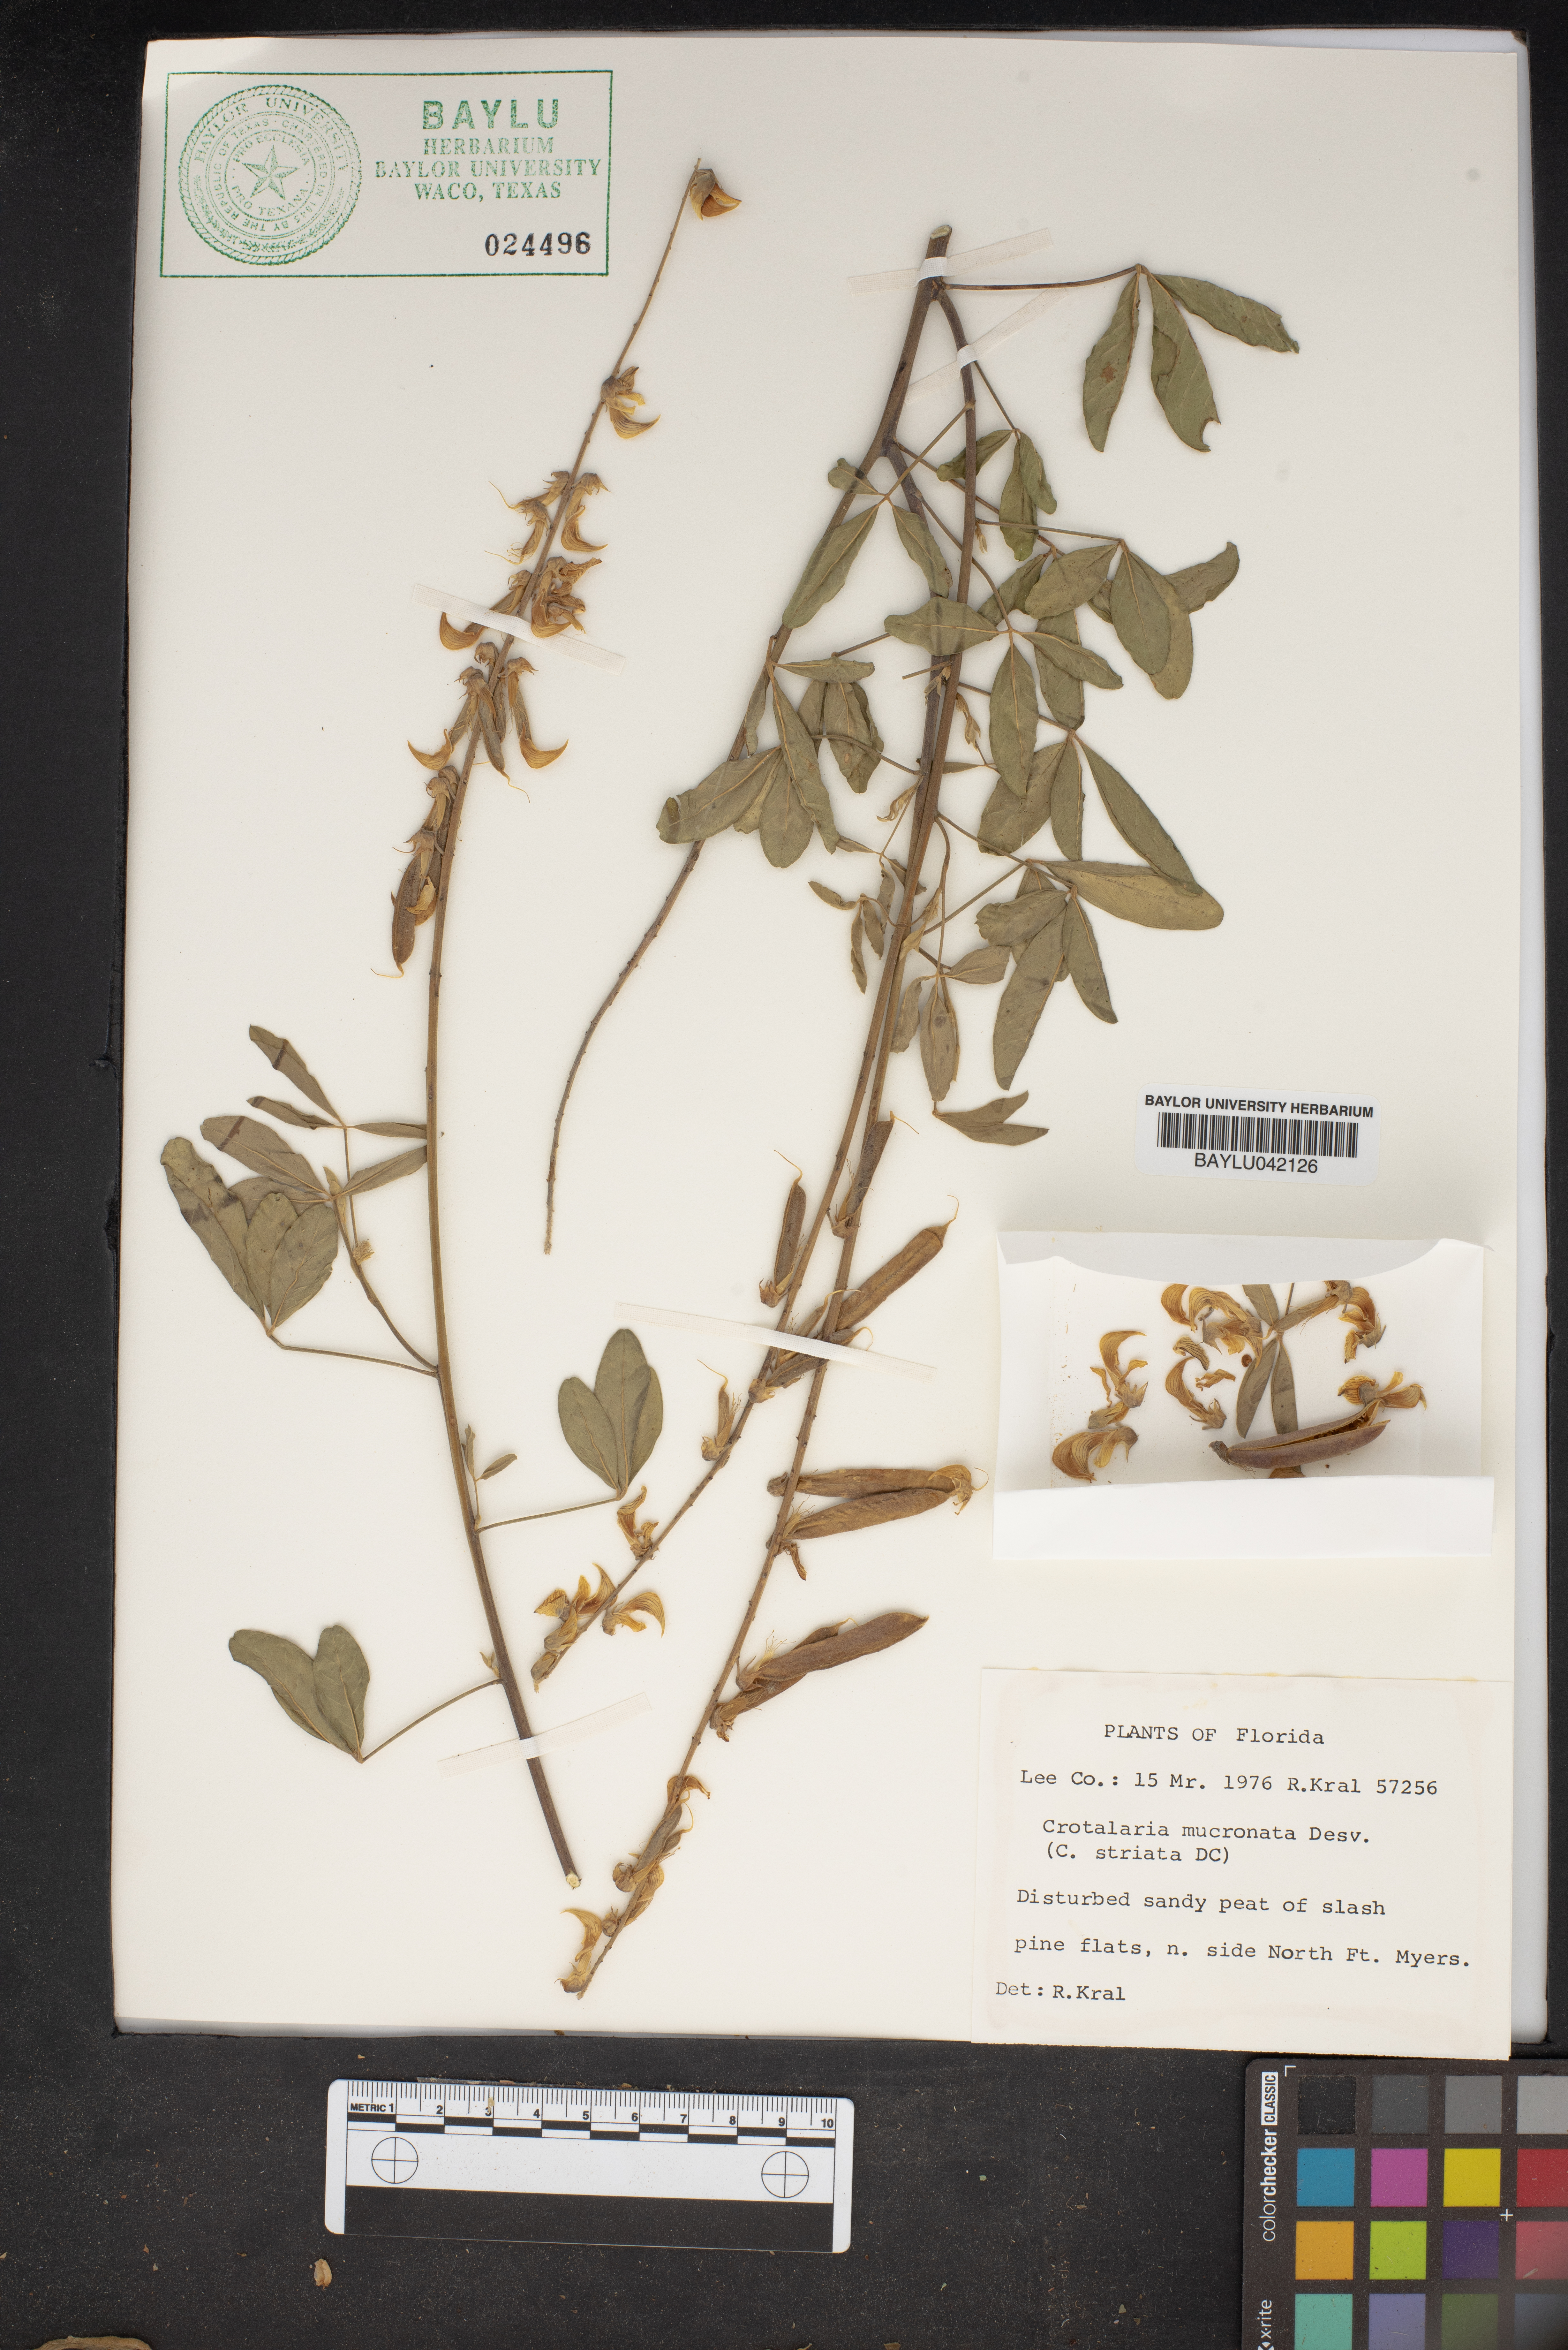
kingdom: Plantae
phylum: Tracheophyta
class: Magnoliopsida
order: Fabales
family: Fabaceae
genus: Crotalaria
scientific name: Crotalaria pallida
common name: Smooth rattlebox
